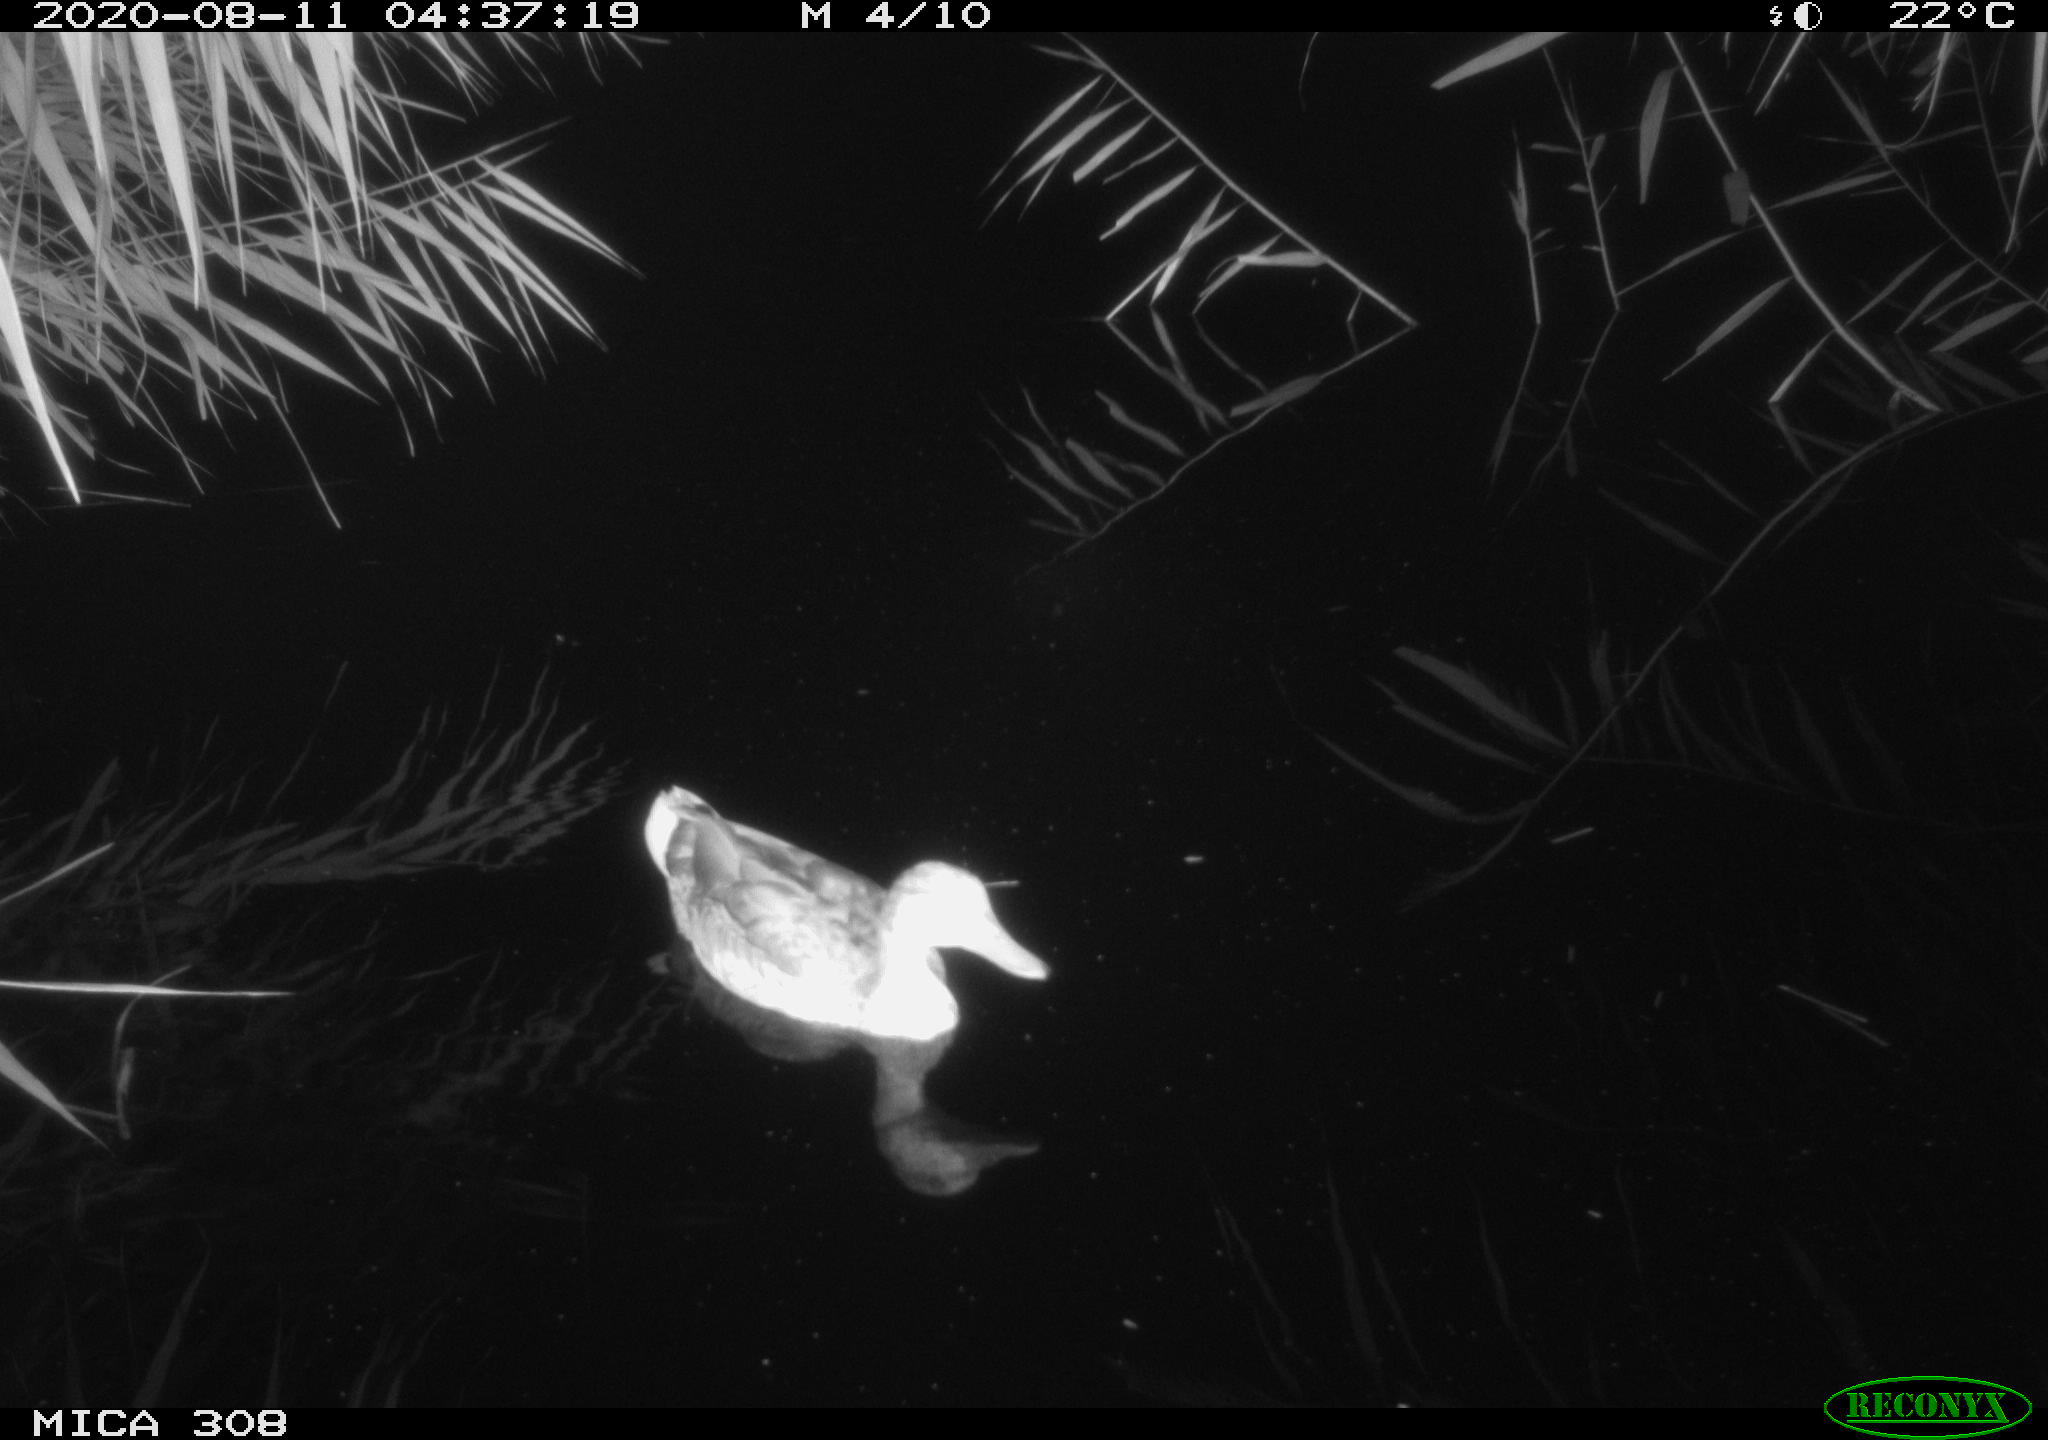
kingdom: Animalia
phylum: Chordata
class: Aves
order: Anseriformes
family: Anatidae
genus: Anas
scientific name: Anas platyrhynchos
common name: Mallard
